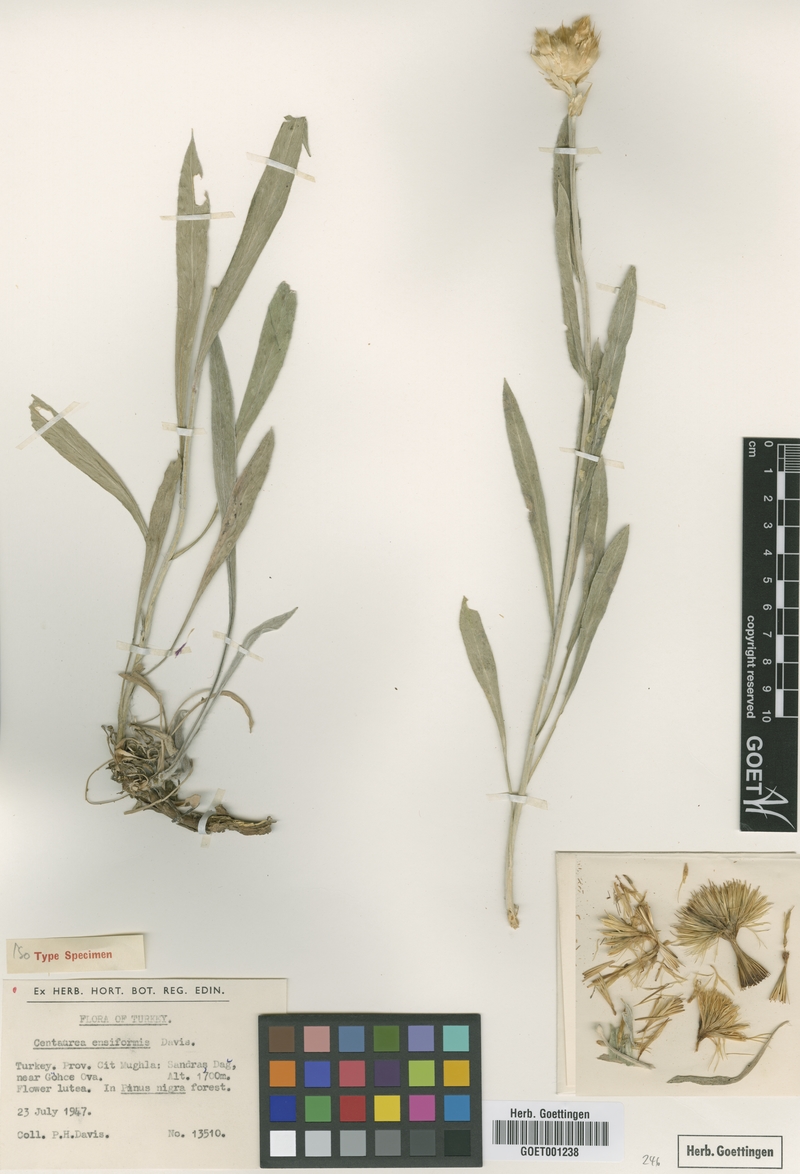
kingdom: Plantae
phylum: Tracheophyta
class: Magnoliopsida
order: Asterales
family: Asteraceae
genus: Centaurea
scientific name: Centaurea ensiformis
